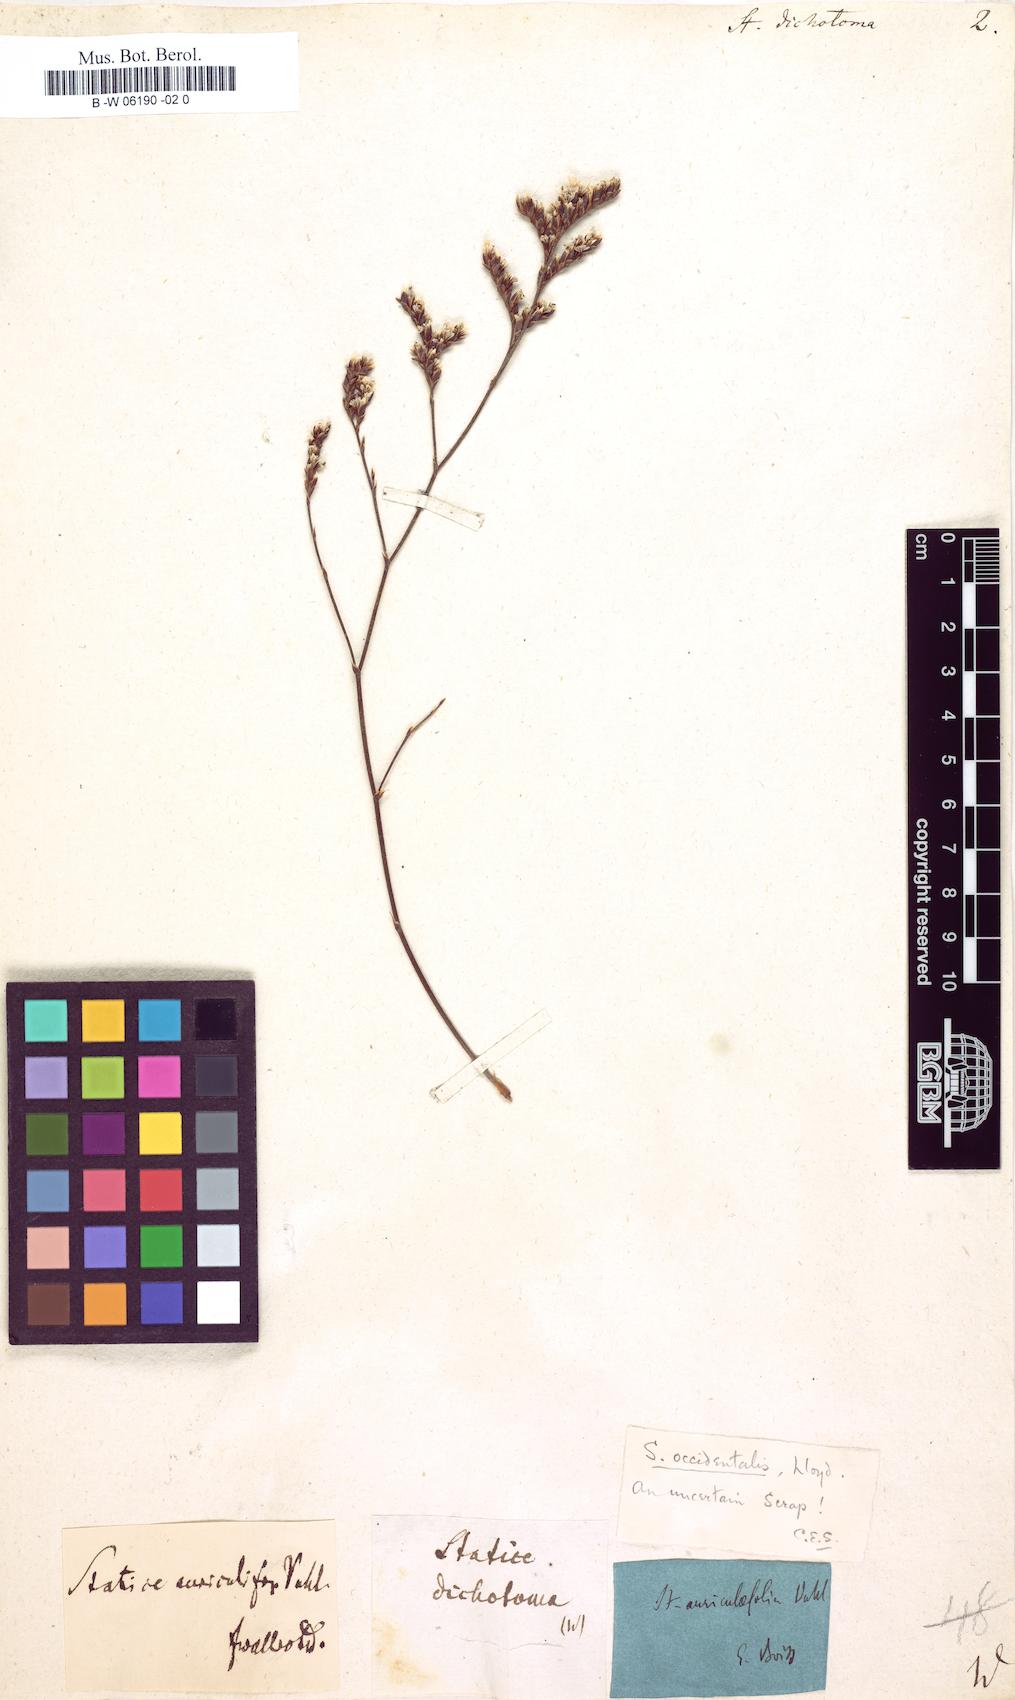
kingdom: Plantae
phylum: Tracheophyta
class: Magnoliopsida
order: Caryophyllales
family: Plumbaginaceae
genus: Limonium
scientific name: Limonium
